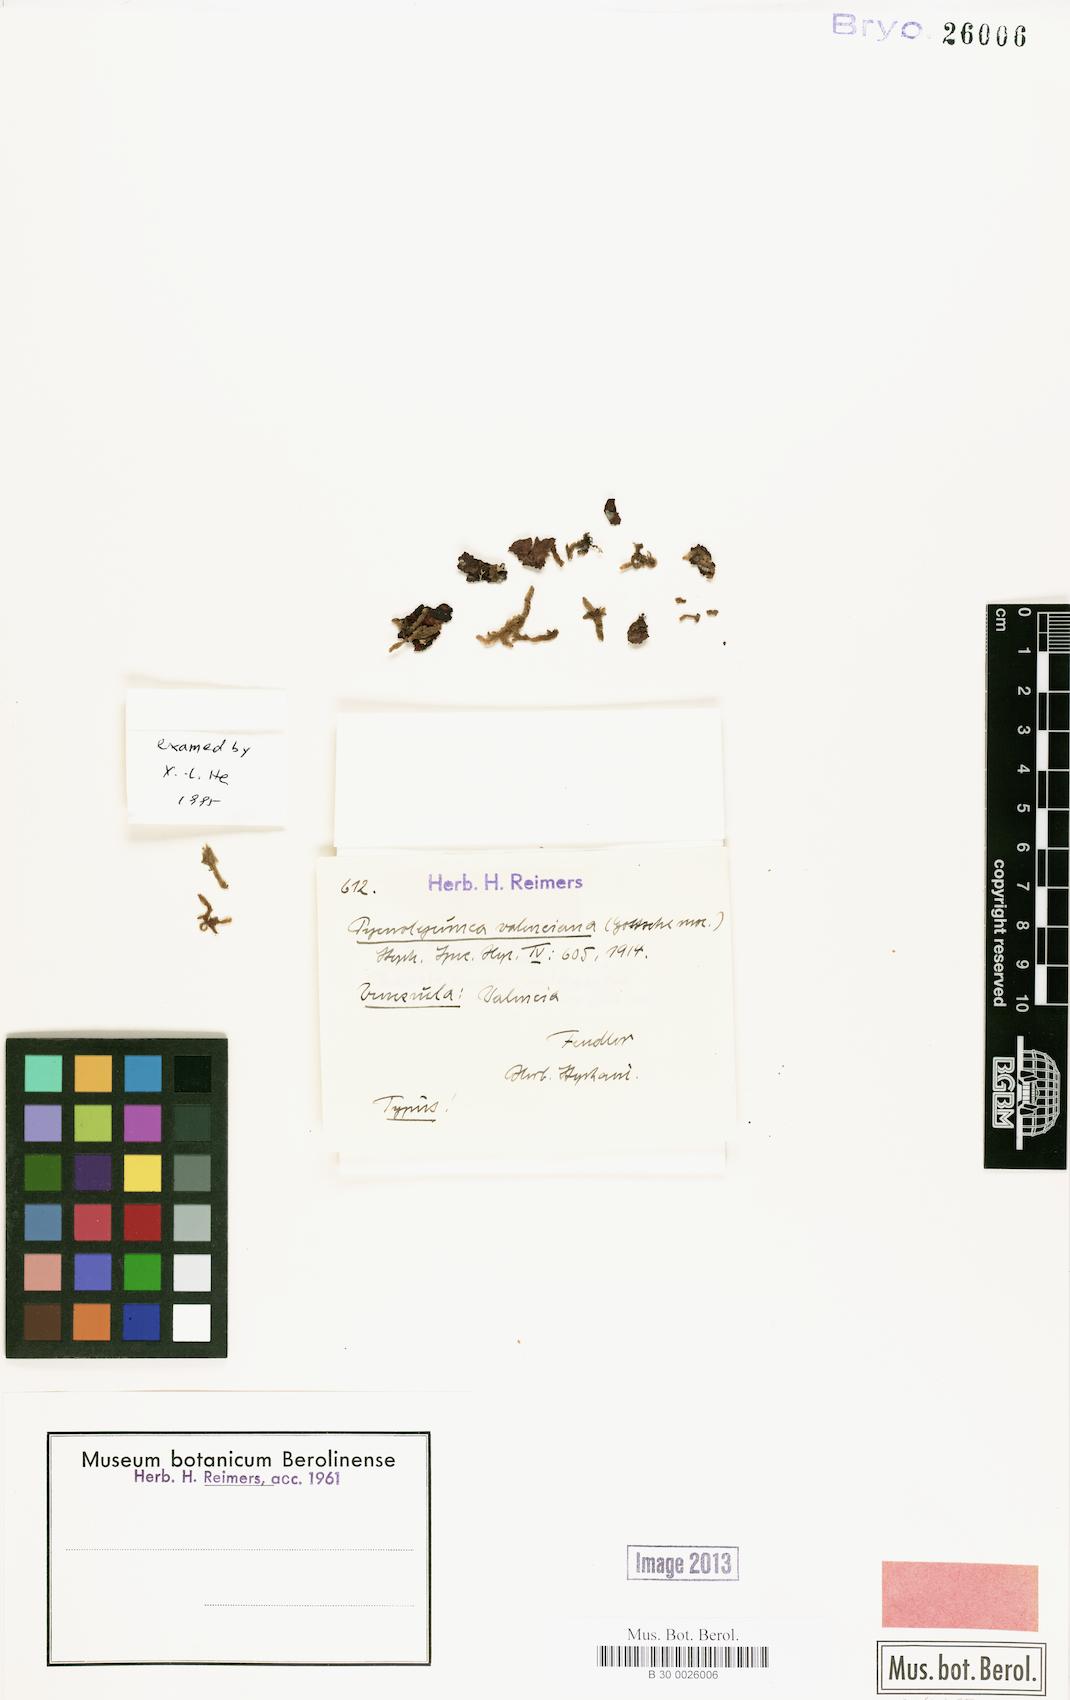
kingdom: Plantae
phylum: Marchantiophyta
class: Jungermanniopsida
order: Porellales
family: Lejeuneaceae
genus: Cheilolejeunea
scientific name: Cheilolejeunea valenciae
